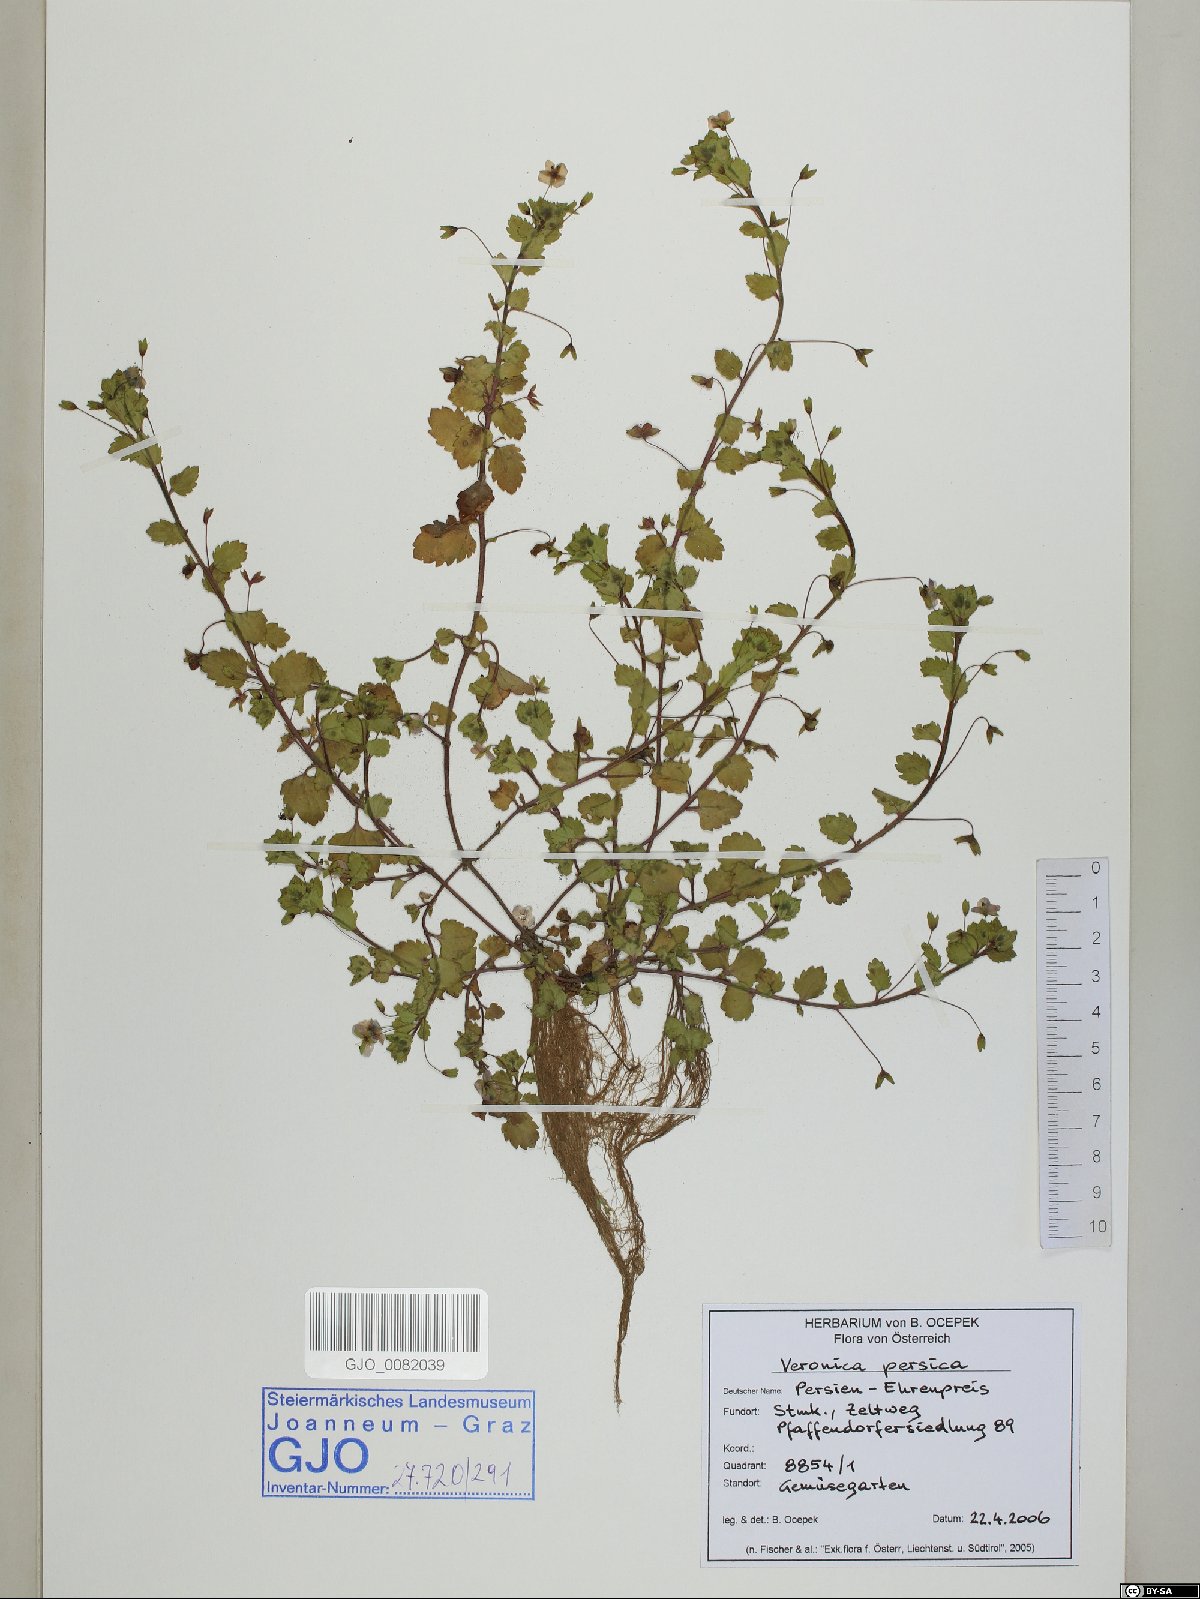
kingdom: Plantae
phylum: Tracheophyta
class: Magnoliopsida
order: Lamiales
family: Plantaginaceae
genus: Veronica
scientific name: Veronica persica
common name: Common field-speedwell
